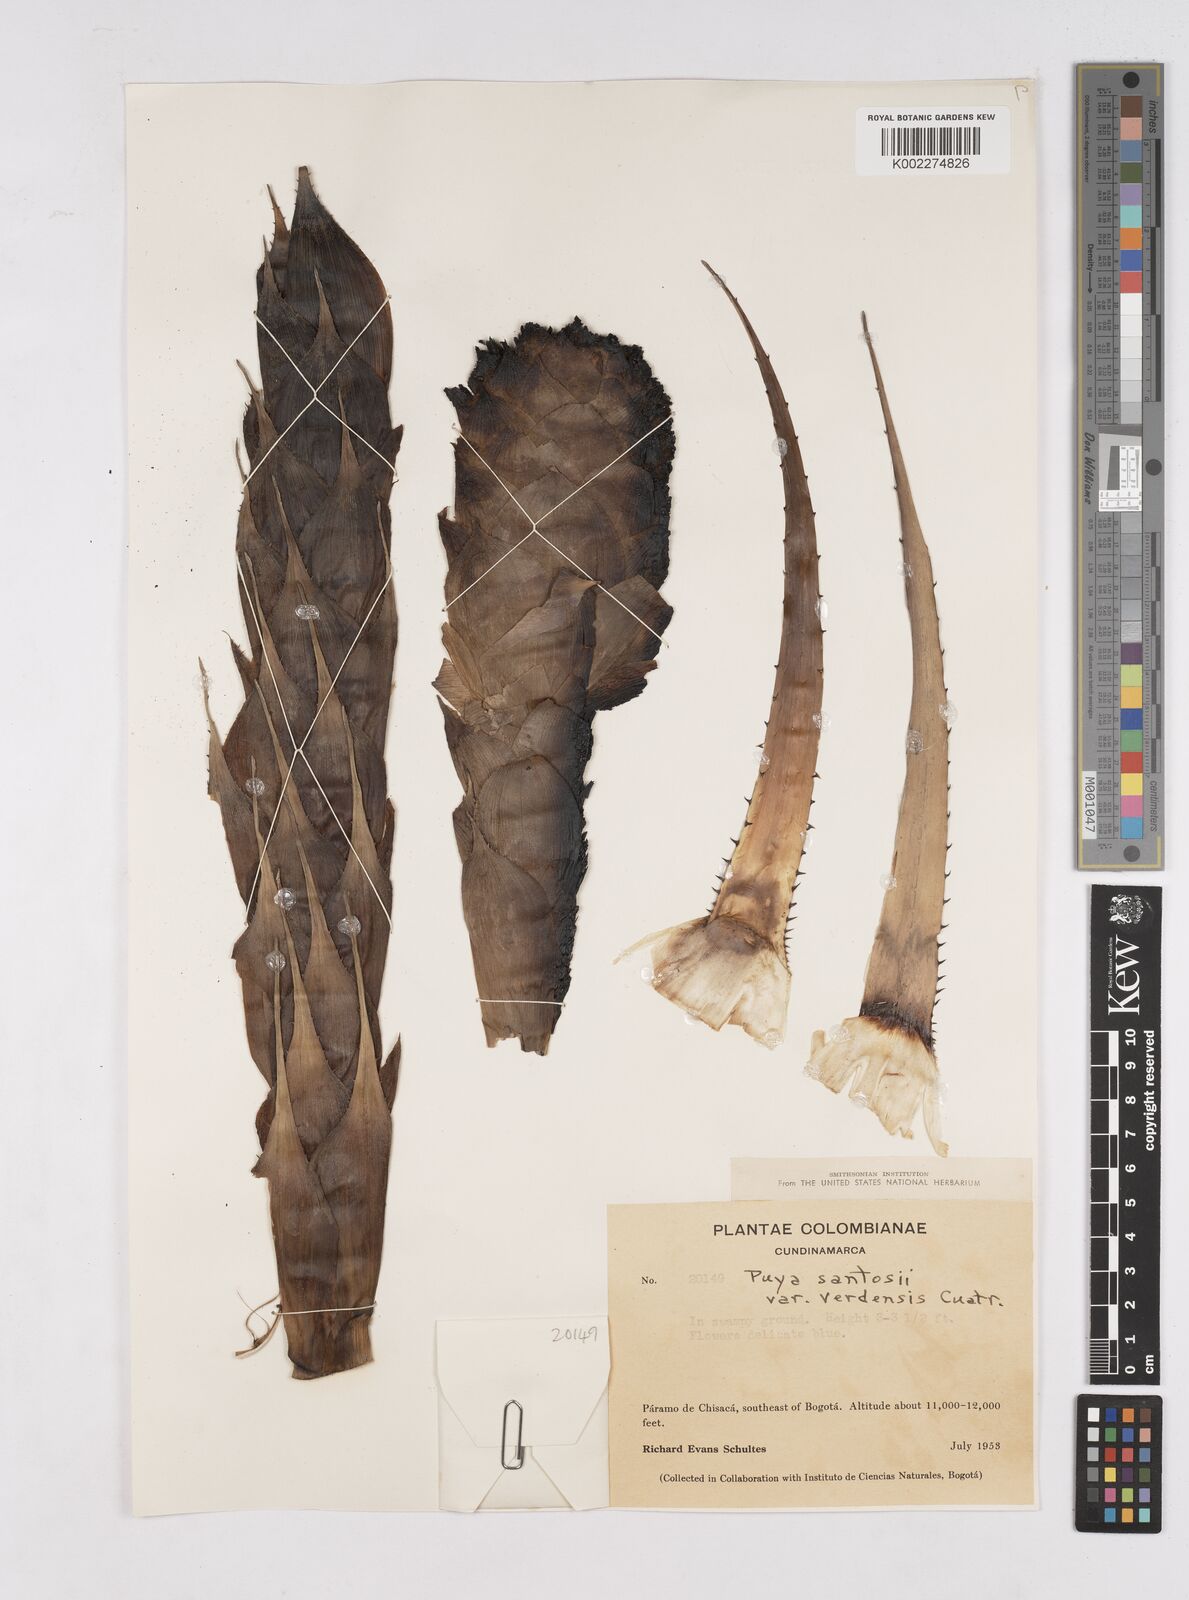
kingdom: Plantae
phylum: Tracheophyta
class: Liliopsida
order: Poales
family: Bromeliaceae
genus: Puya
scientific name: Puya santosii
